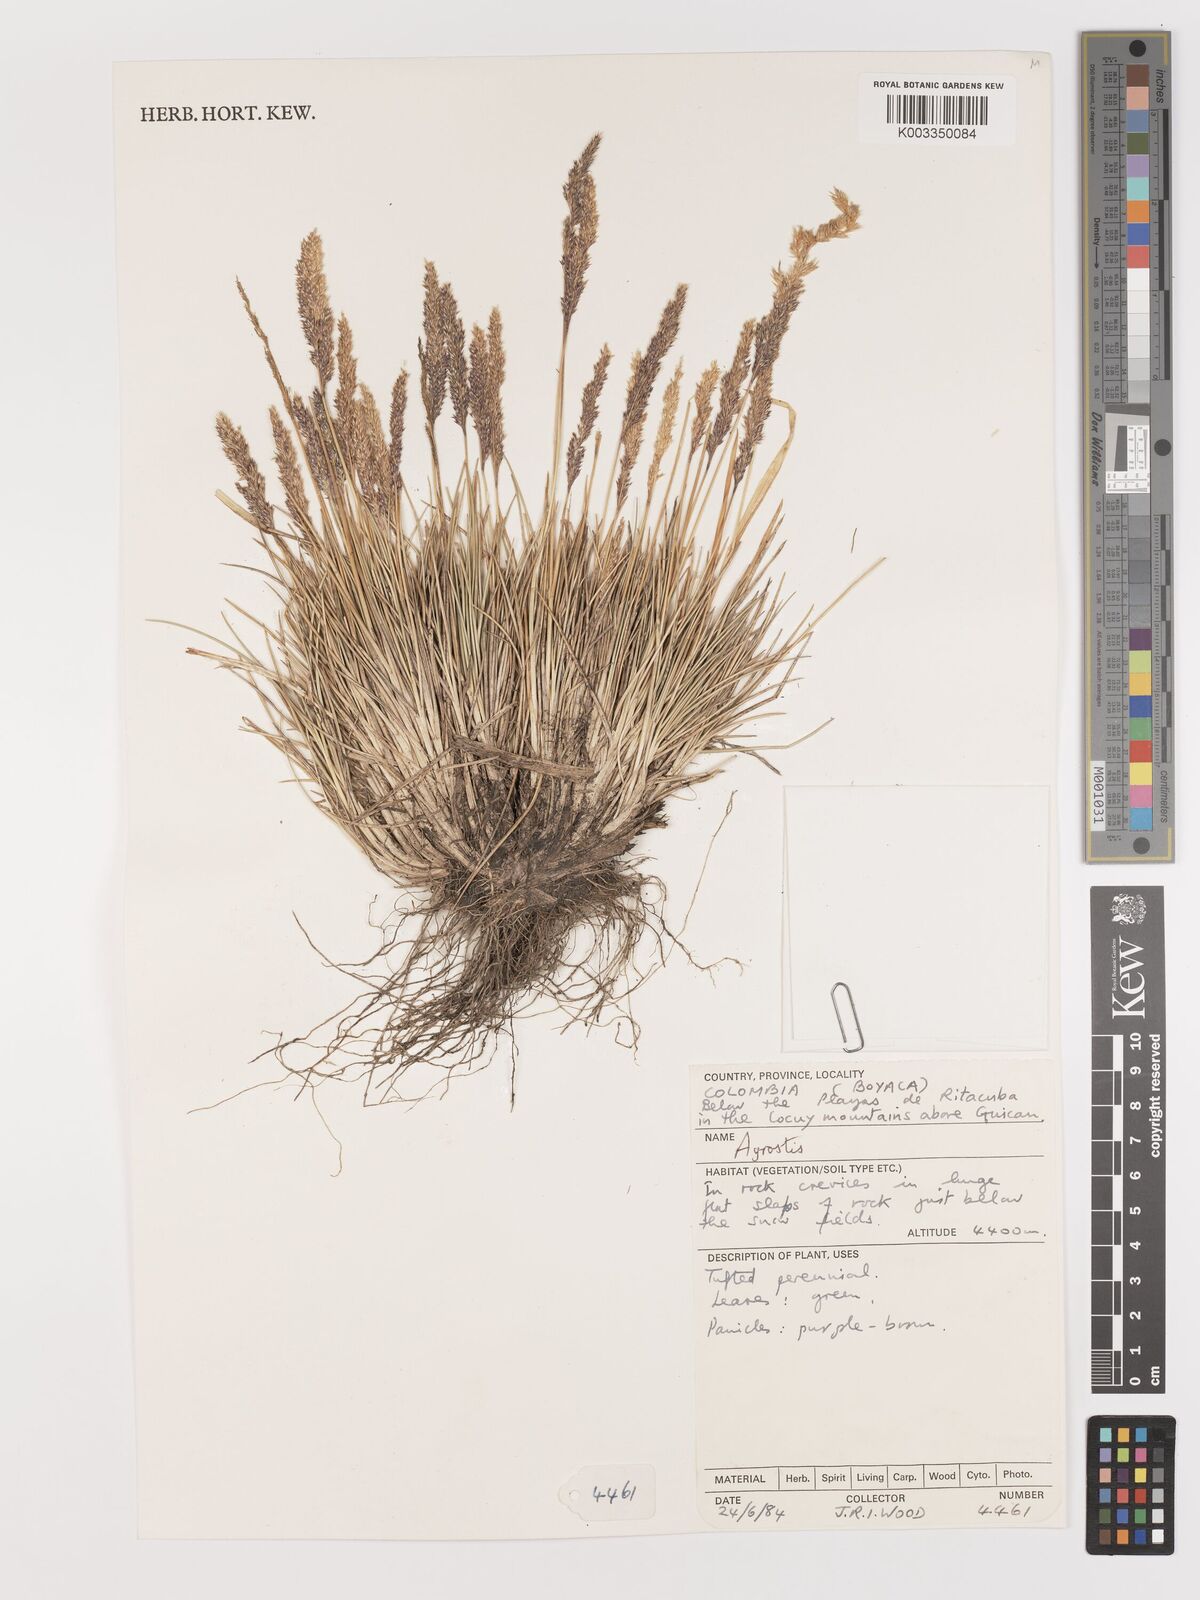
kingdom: Plantae
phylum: Tracheophyta
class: Liliopsida
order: Poales
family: Poaceae
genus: Agrostis
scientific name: Agrostis
